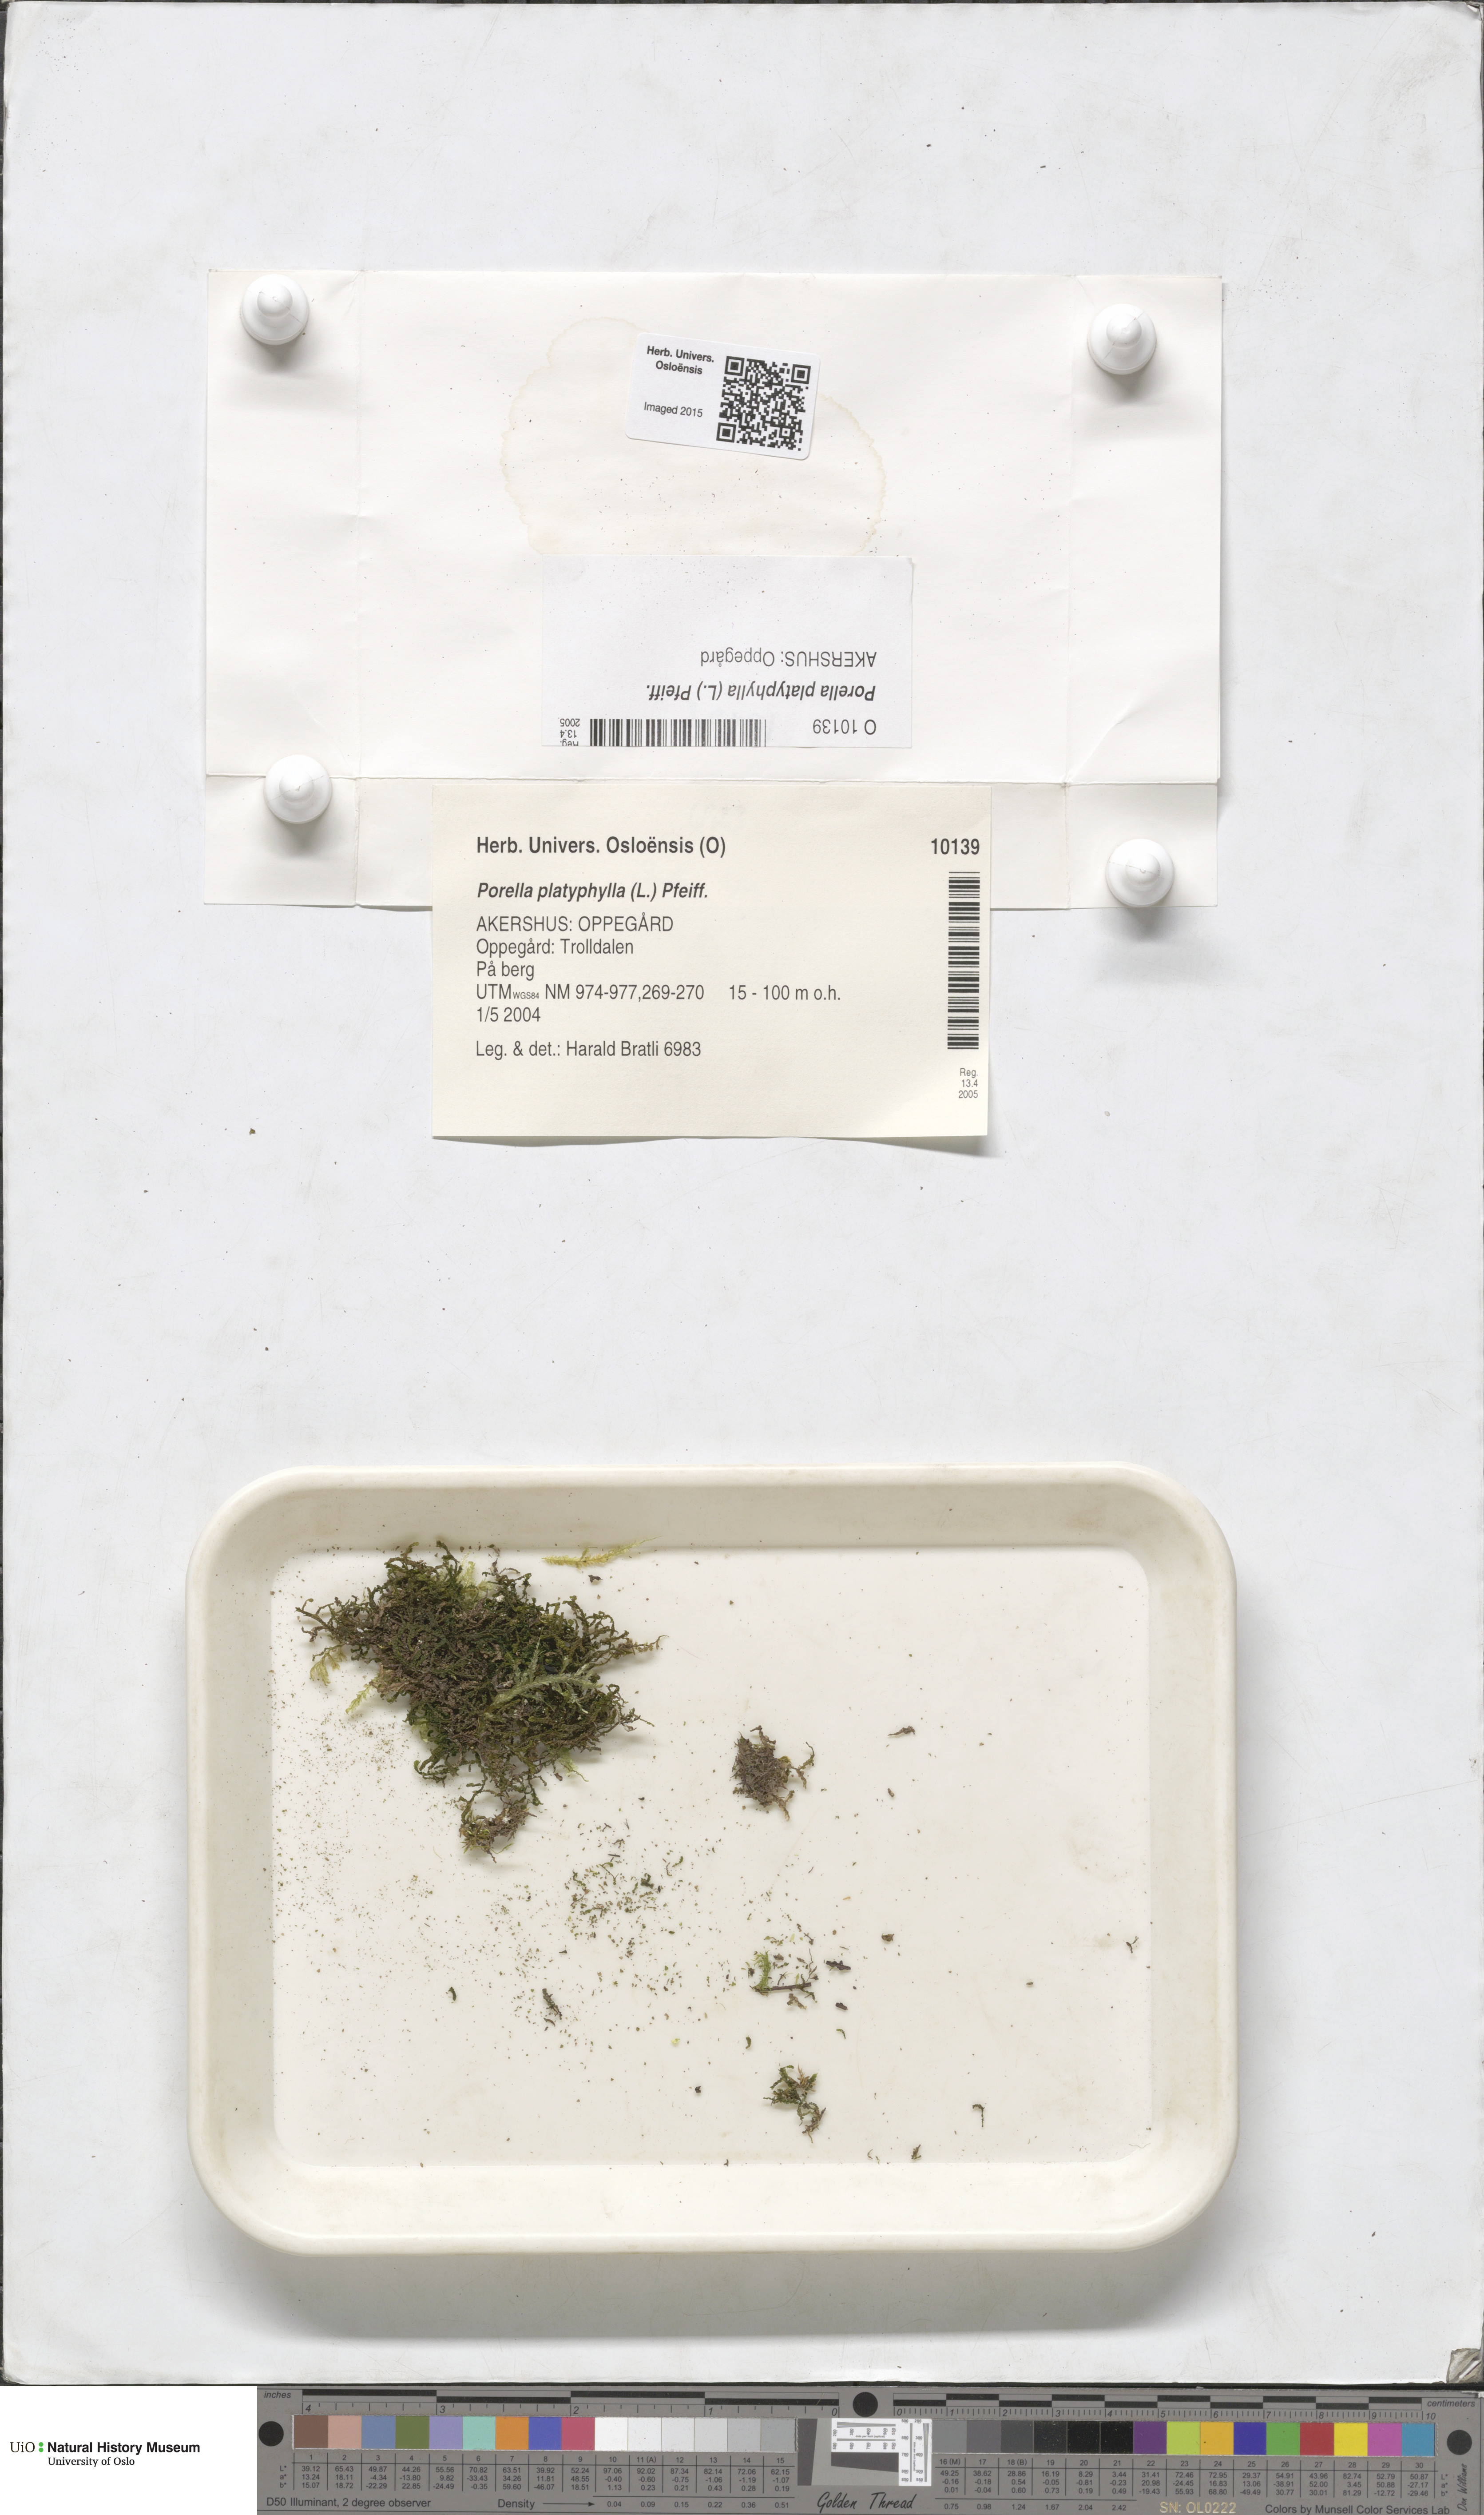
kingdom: Plantae
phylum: Marchantiophyta
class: Jungermanniopsida
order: Porellales
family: Porellaceae
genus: Porella
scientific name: Porella platyphylla
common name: Wall scalewort
